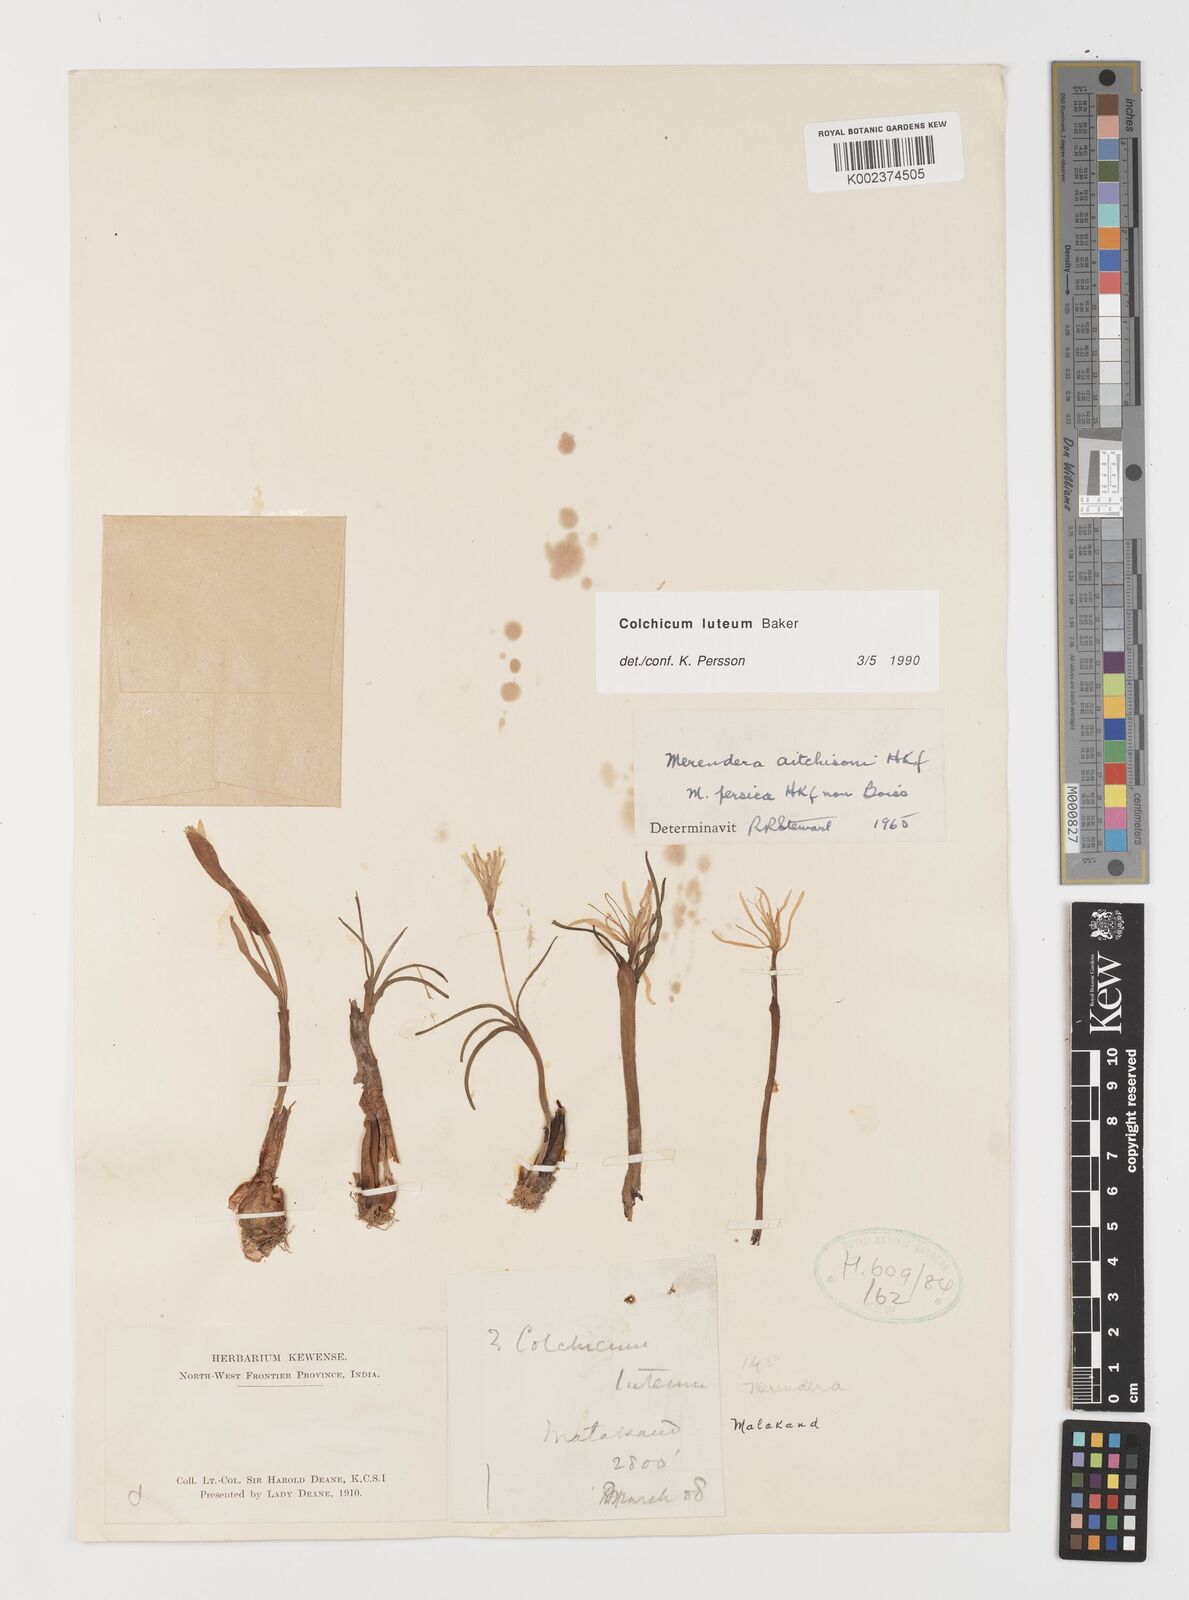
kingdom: Plantae
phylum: Tracheophyta
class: Liliopsida
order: Liliales
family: Colchicaceae
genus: Colchicum
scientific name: Colchicum luteum
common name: Indian colchicum
